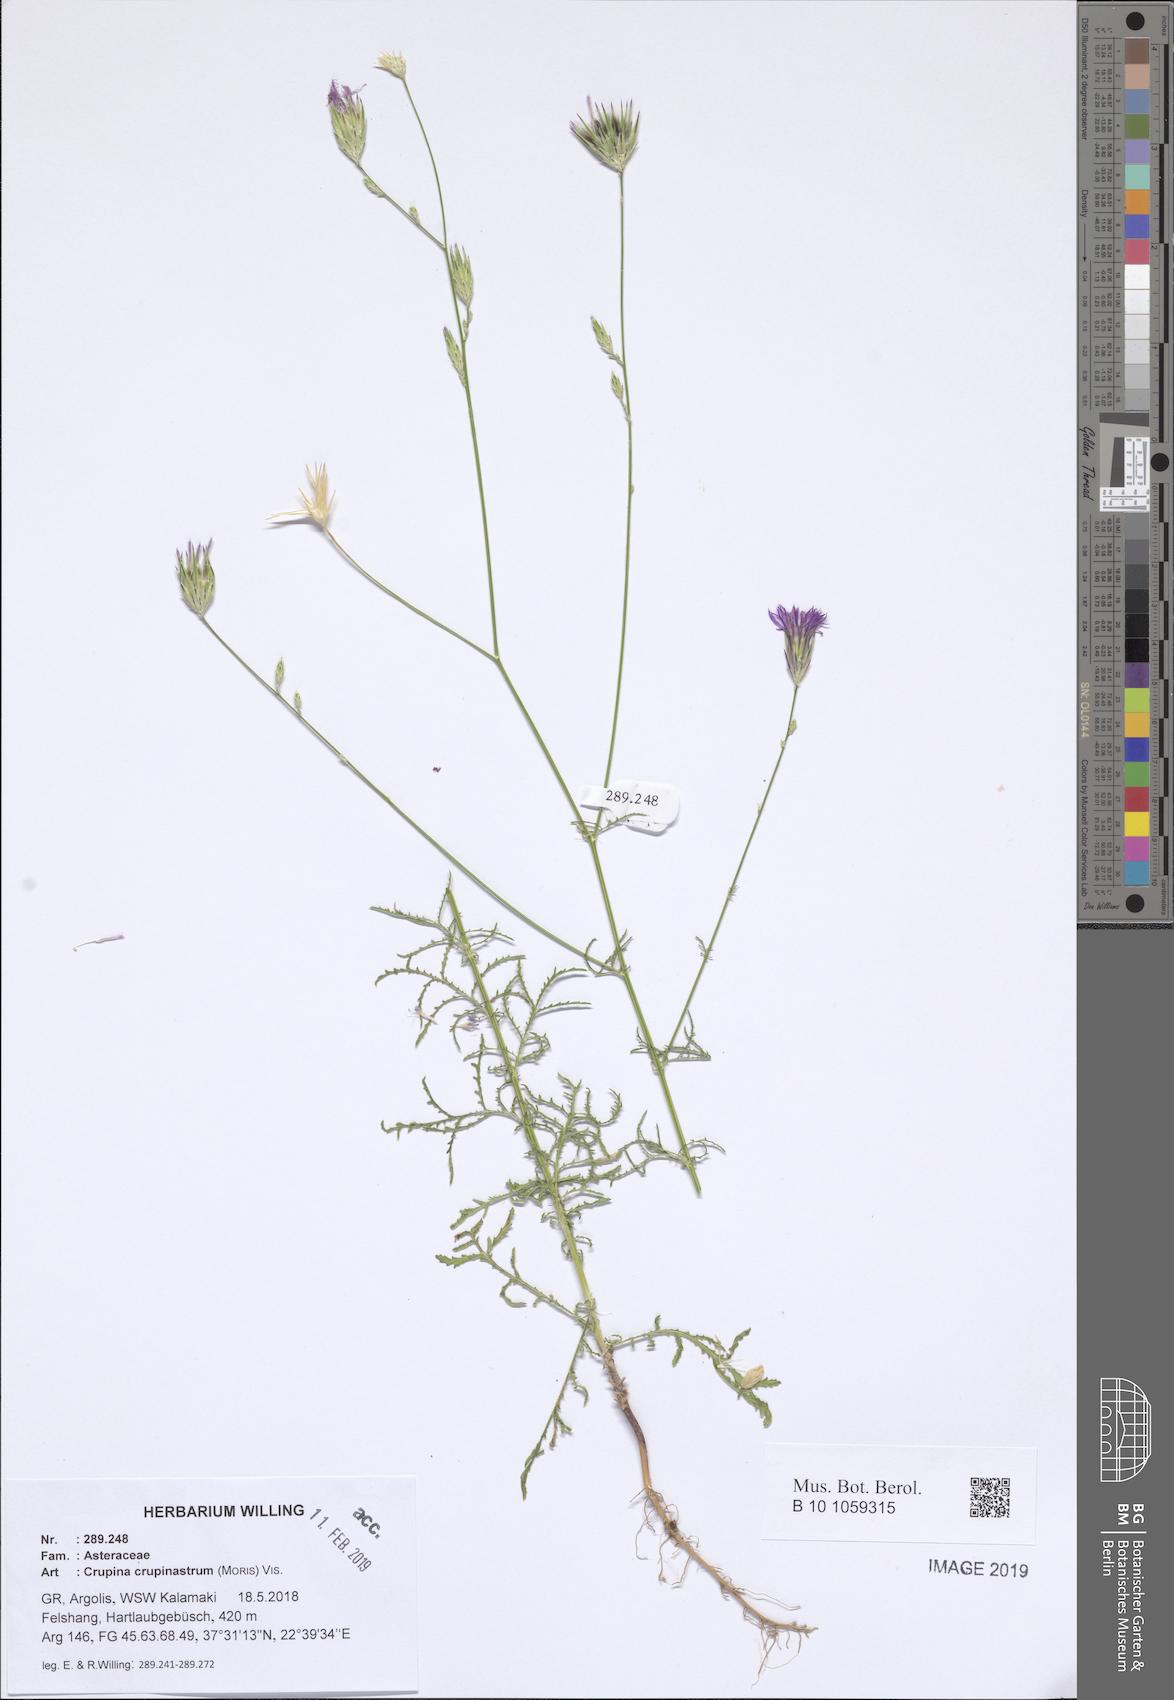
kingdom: Plantae
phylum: Tracheophyta
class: Magnoliopsida
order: Asterales
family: Asteraceae
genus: Crupina
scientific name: Crupina crupinastrum
